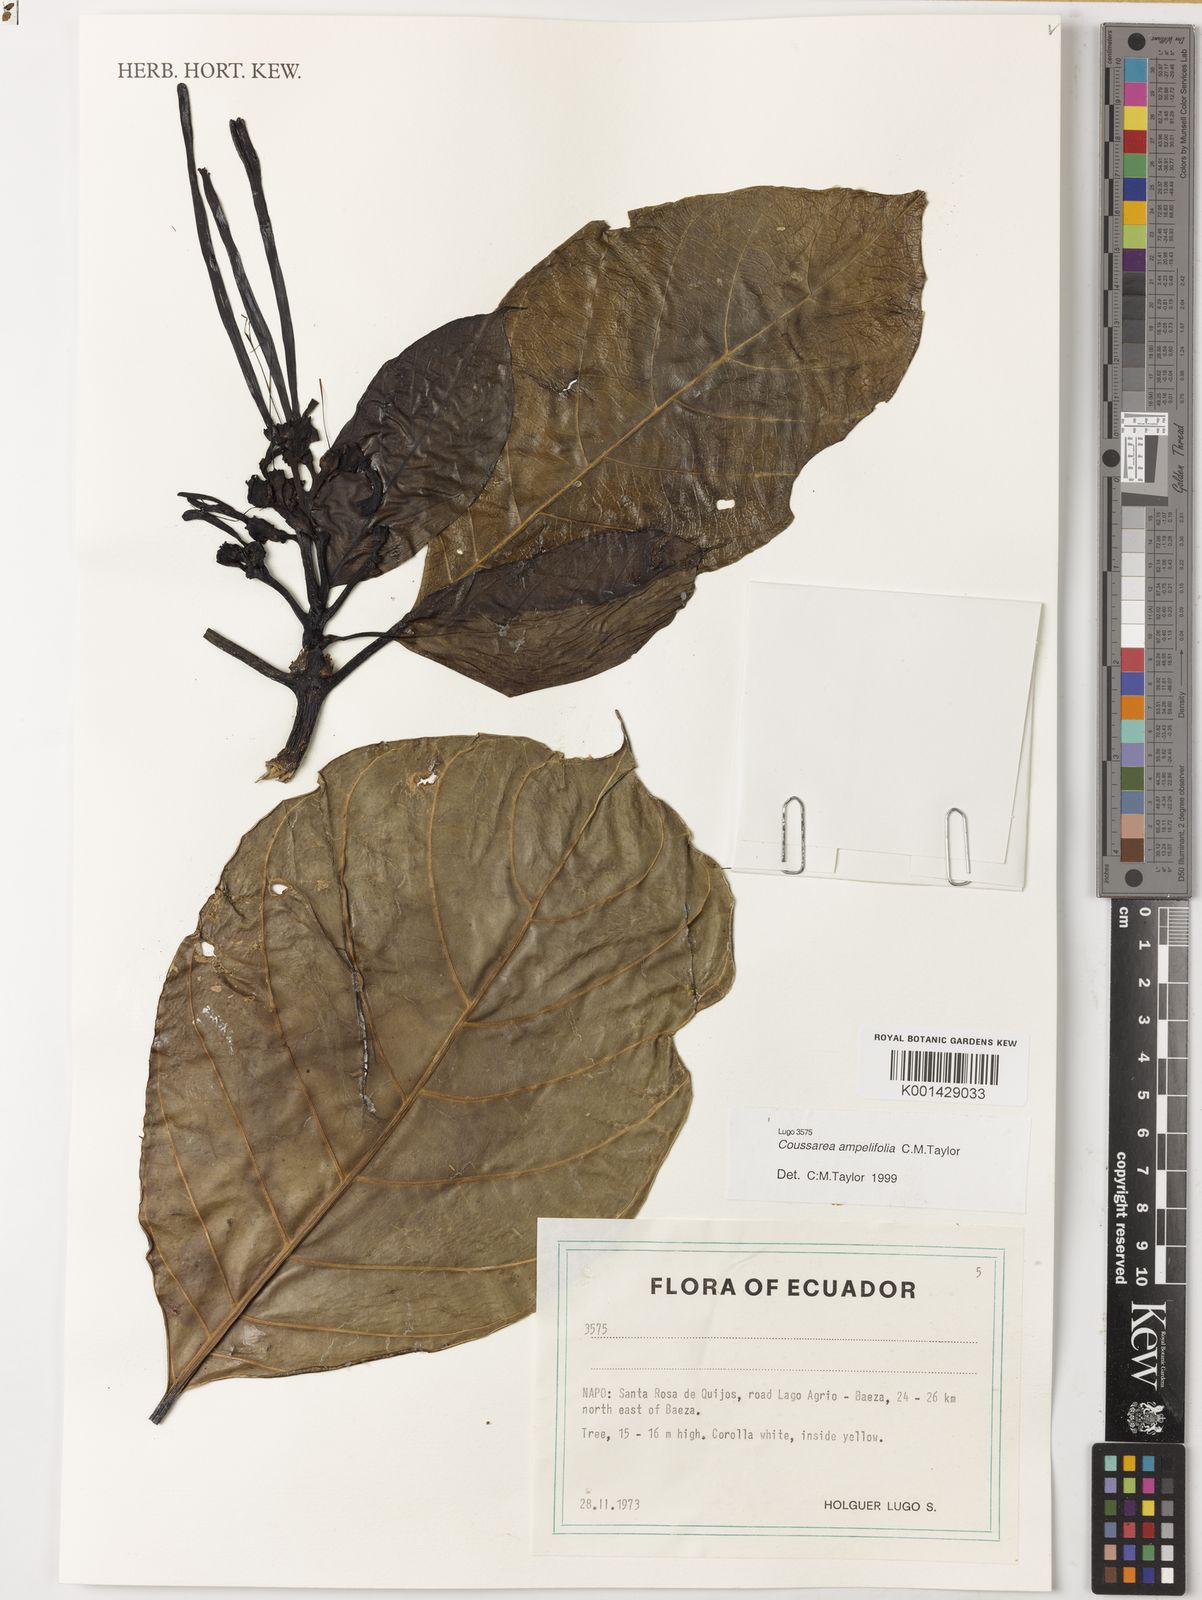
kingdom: Plantae
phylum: Tracheophyta
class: Magnoliopsida
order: Gentianales
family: Rubiaceae
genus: Coussarea
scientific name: Coussarea amplifolia
